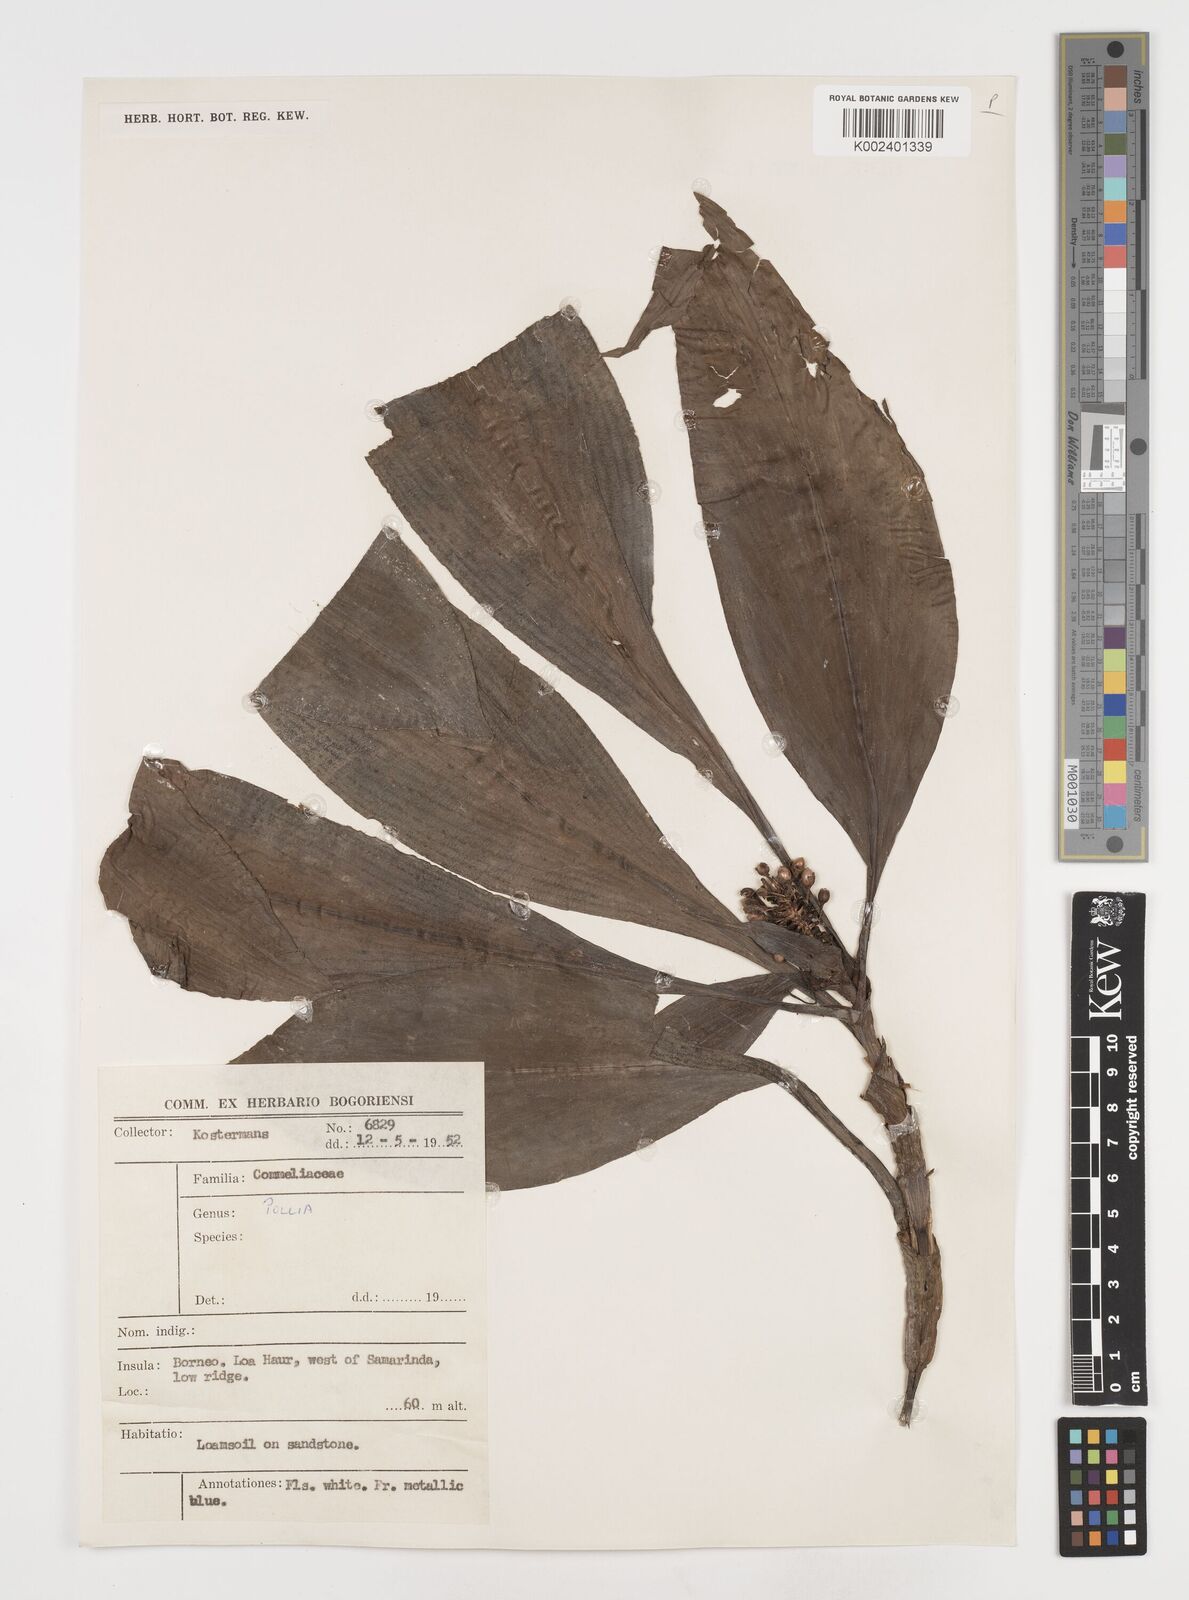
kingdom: Plantae
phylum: Tracheophyta
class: Liliopsida
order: Commelinales
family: Commelinaceae
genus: Pollia
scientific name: Pollia thyrsiflora
